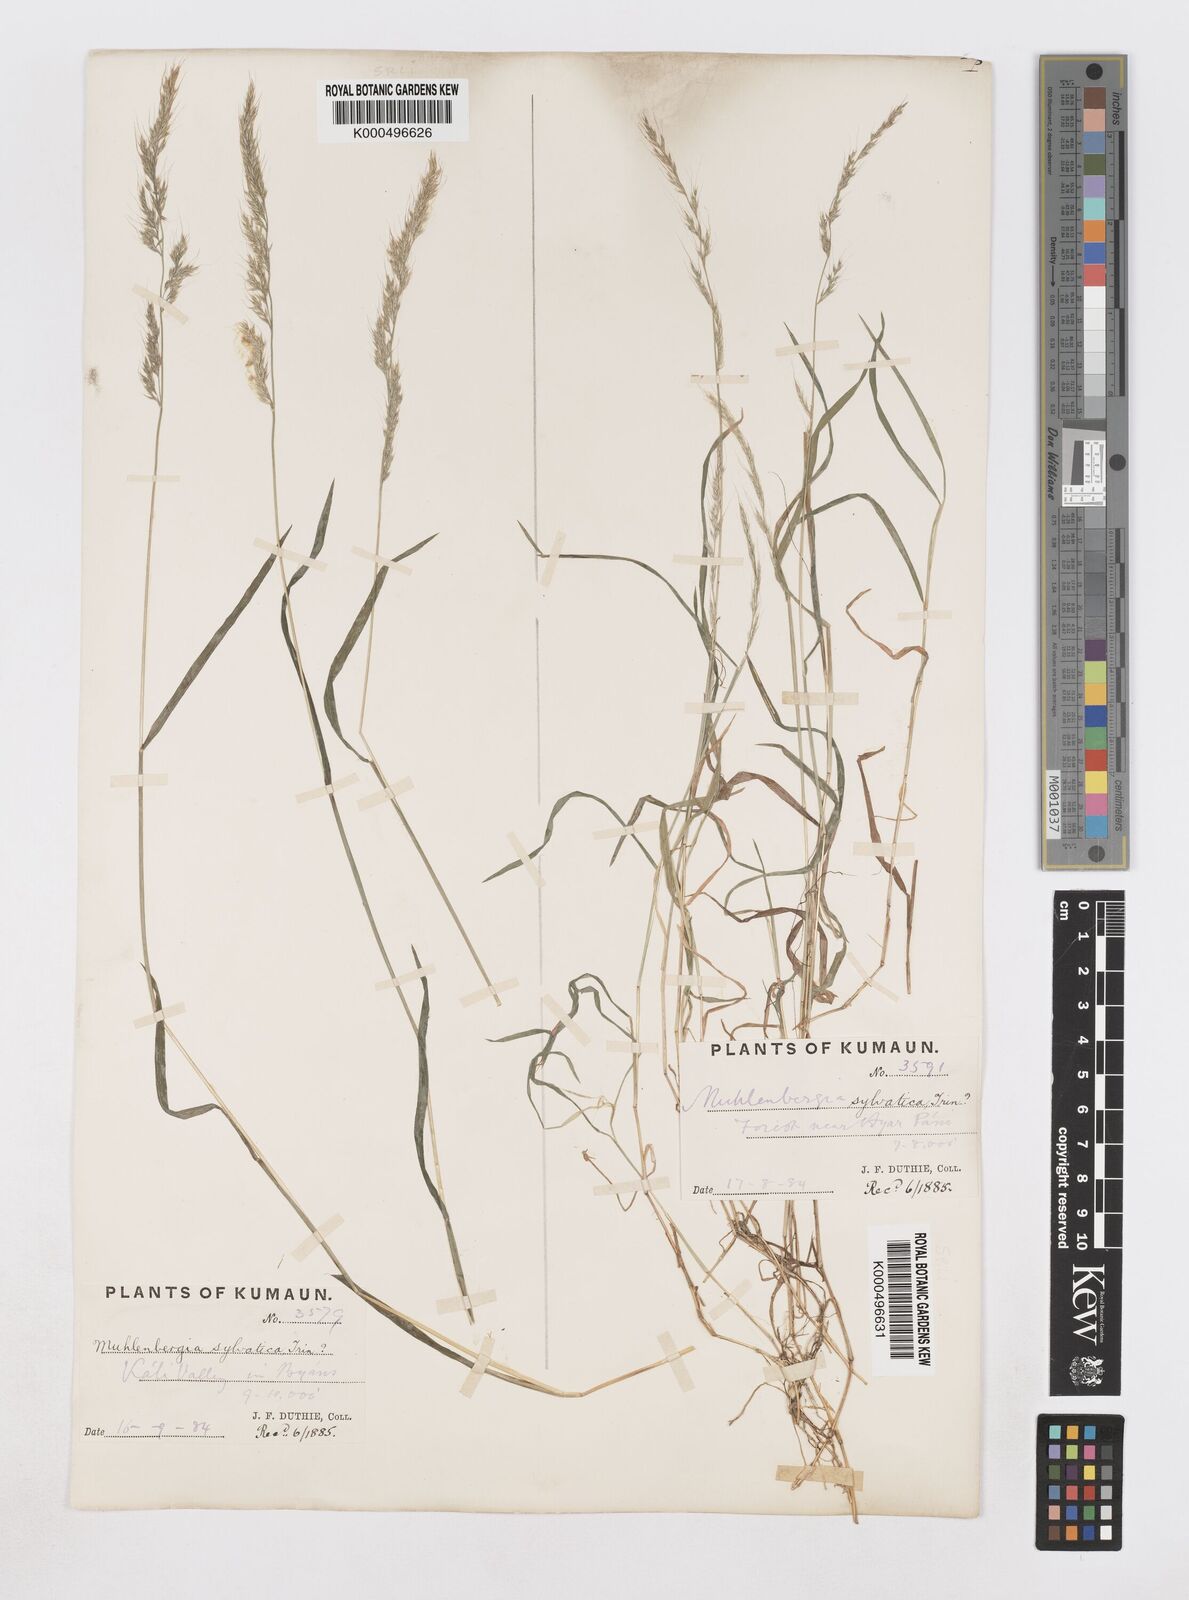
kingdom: Plantae
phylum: Tracheophyta
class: Liliopsida
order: Poales
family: Poaceae
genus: Muhlenbergia
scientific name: Muhlenbergia duthieana
